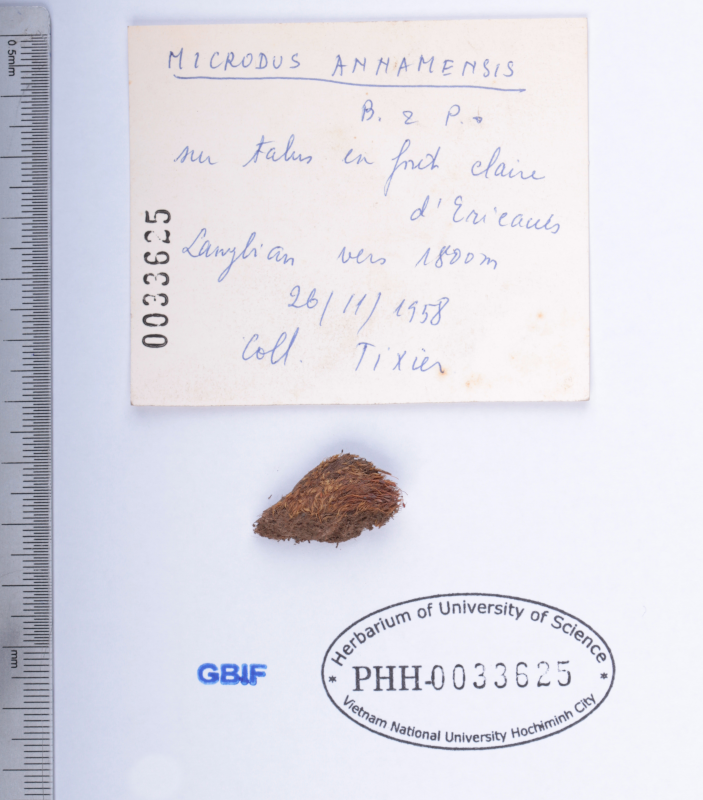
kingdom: Plantae
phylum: Bryophyta
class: Bryopsida
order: Dicranales
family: Dicranellaceae
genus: Leptotrichella
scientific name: Leptotrichella annamensis
